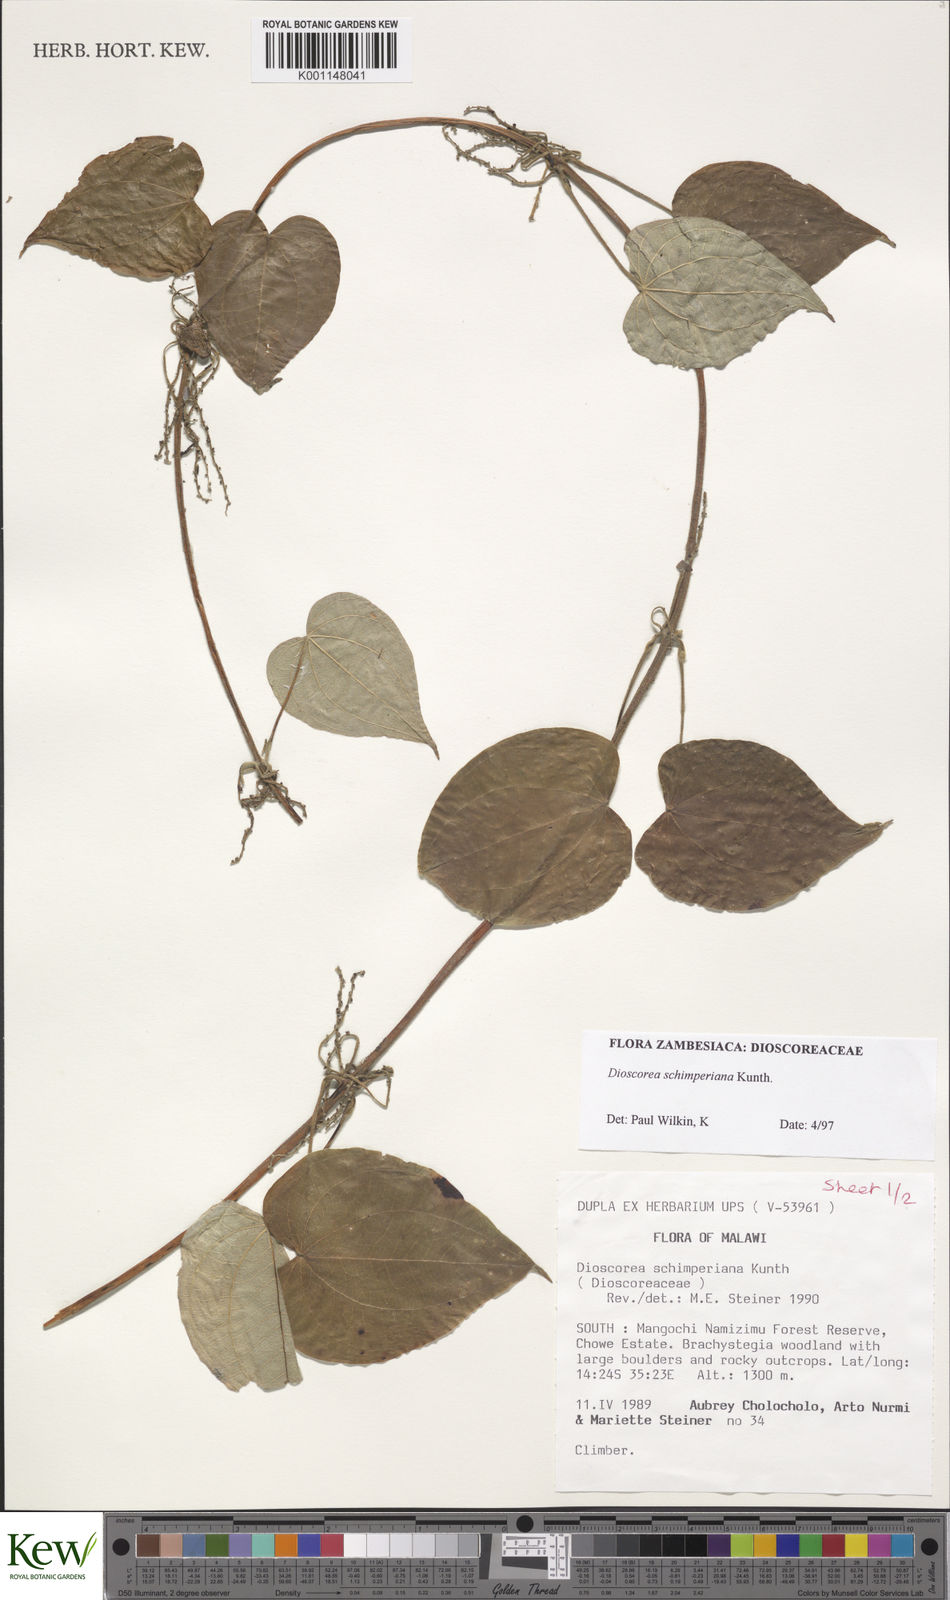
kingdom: Plantae
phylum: Tracheophyta
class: Liliopsida
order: Dioscoreales
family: Dioscoreaceae
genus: Dioscorea
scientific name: Dioscorea schimperiana
